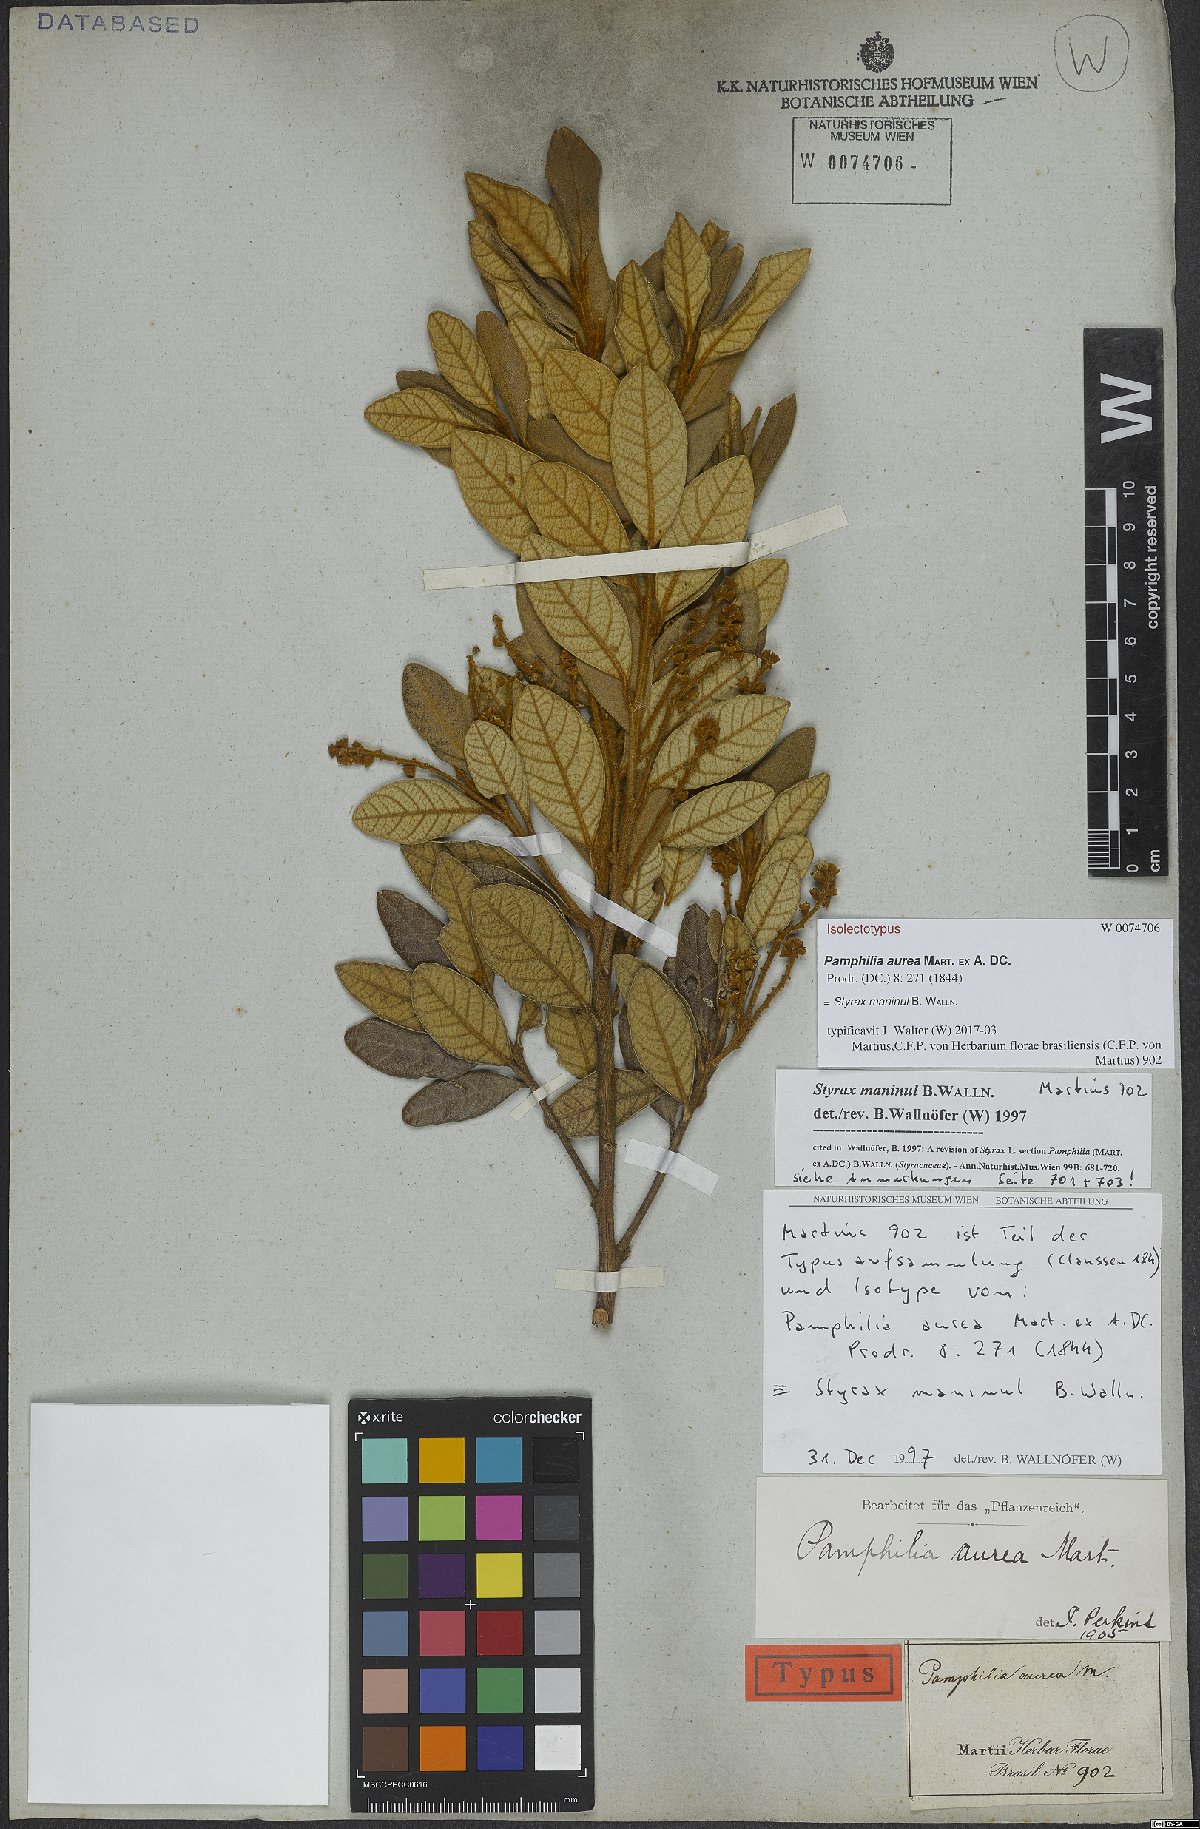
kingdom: Plantae
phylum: Tracheophyta
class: Magnoliopsida
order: Ericales
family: Styracaceae
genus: Styrax
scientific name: Styrax maninul
